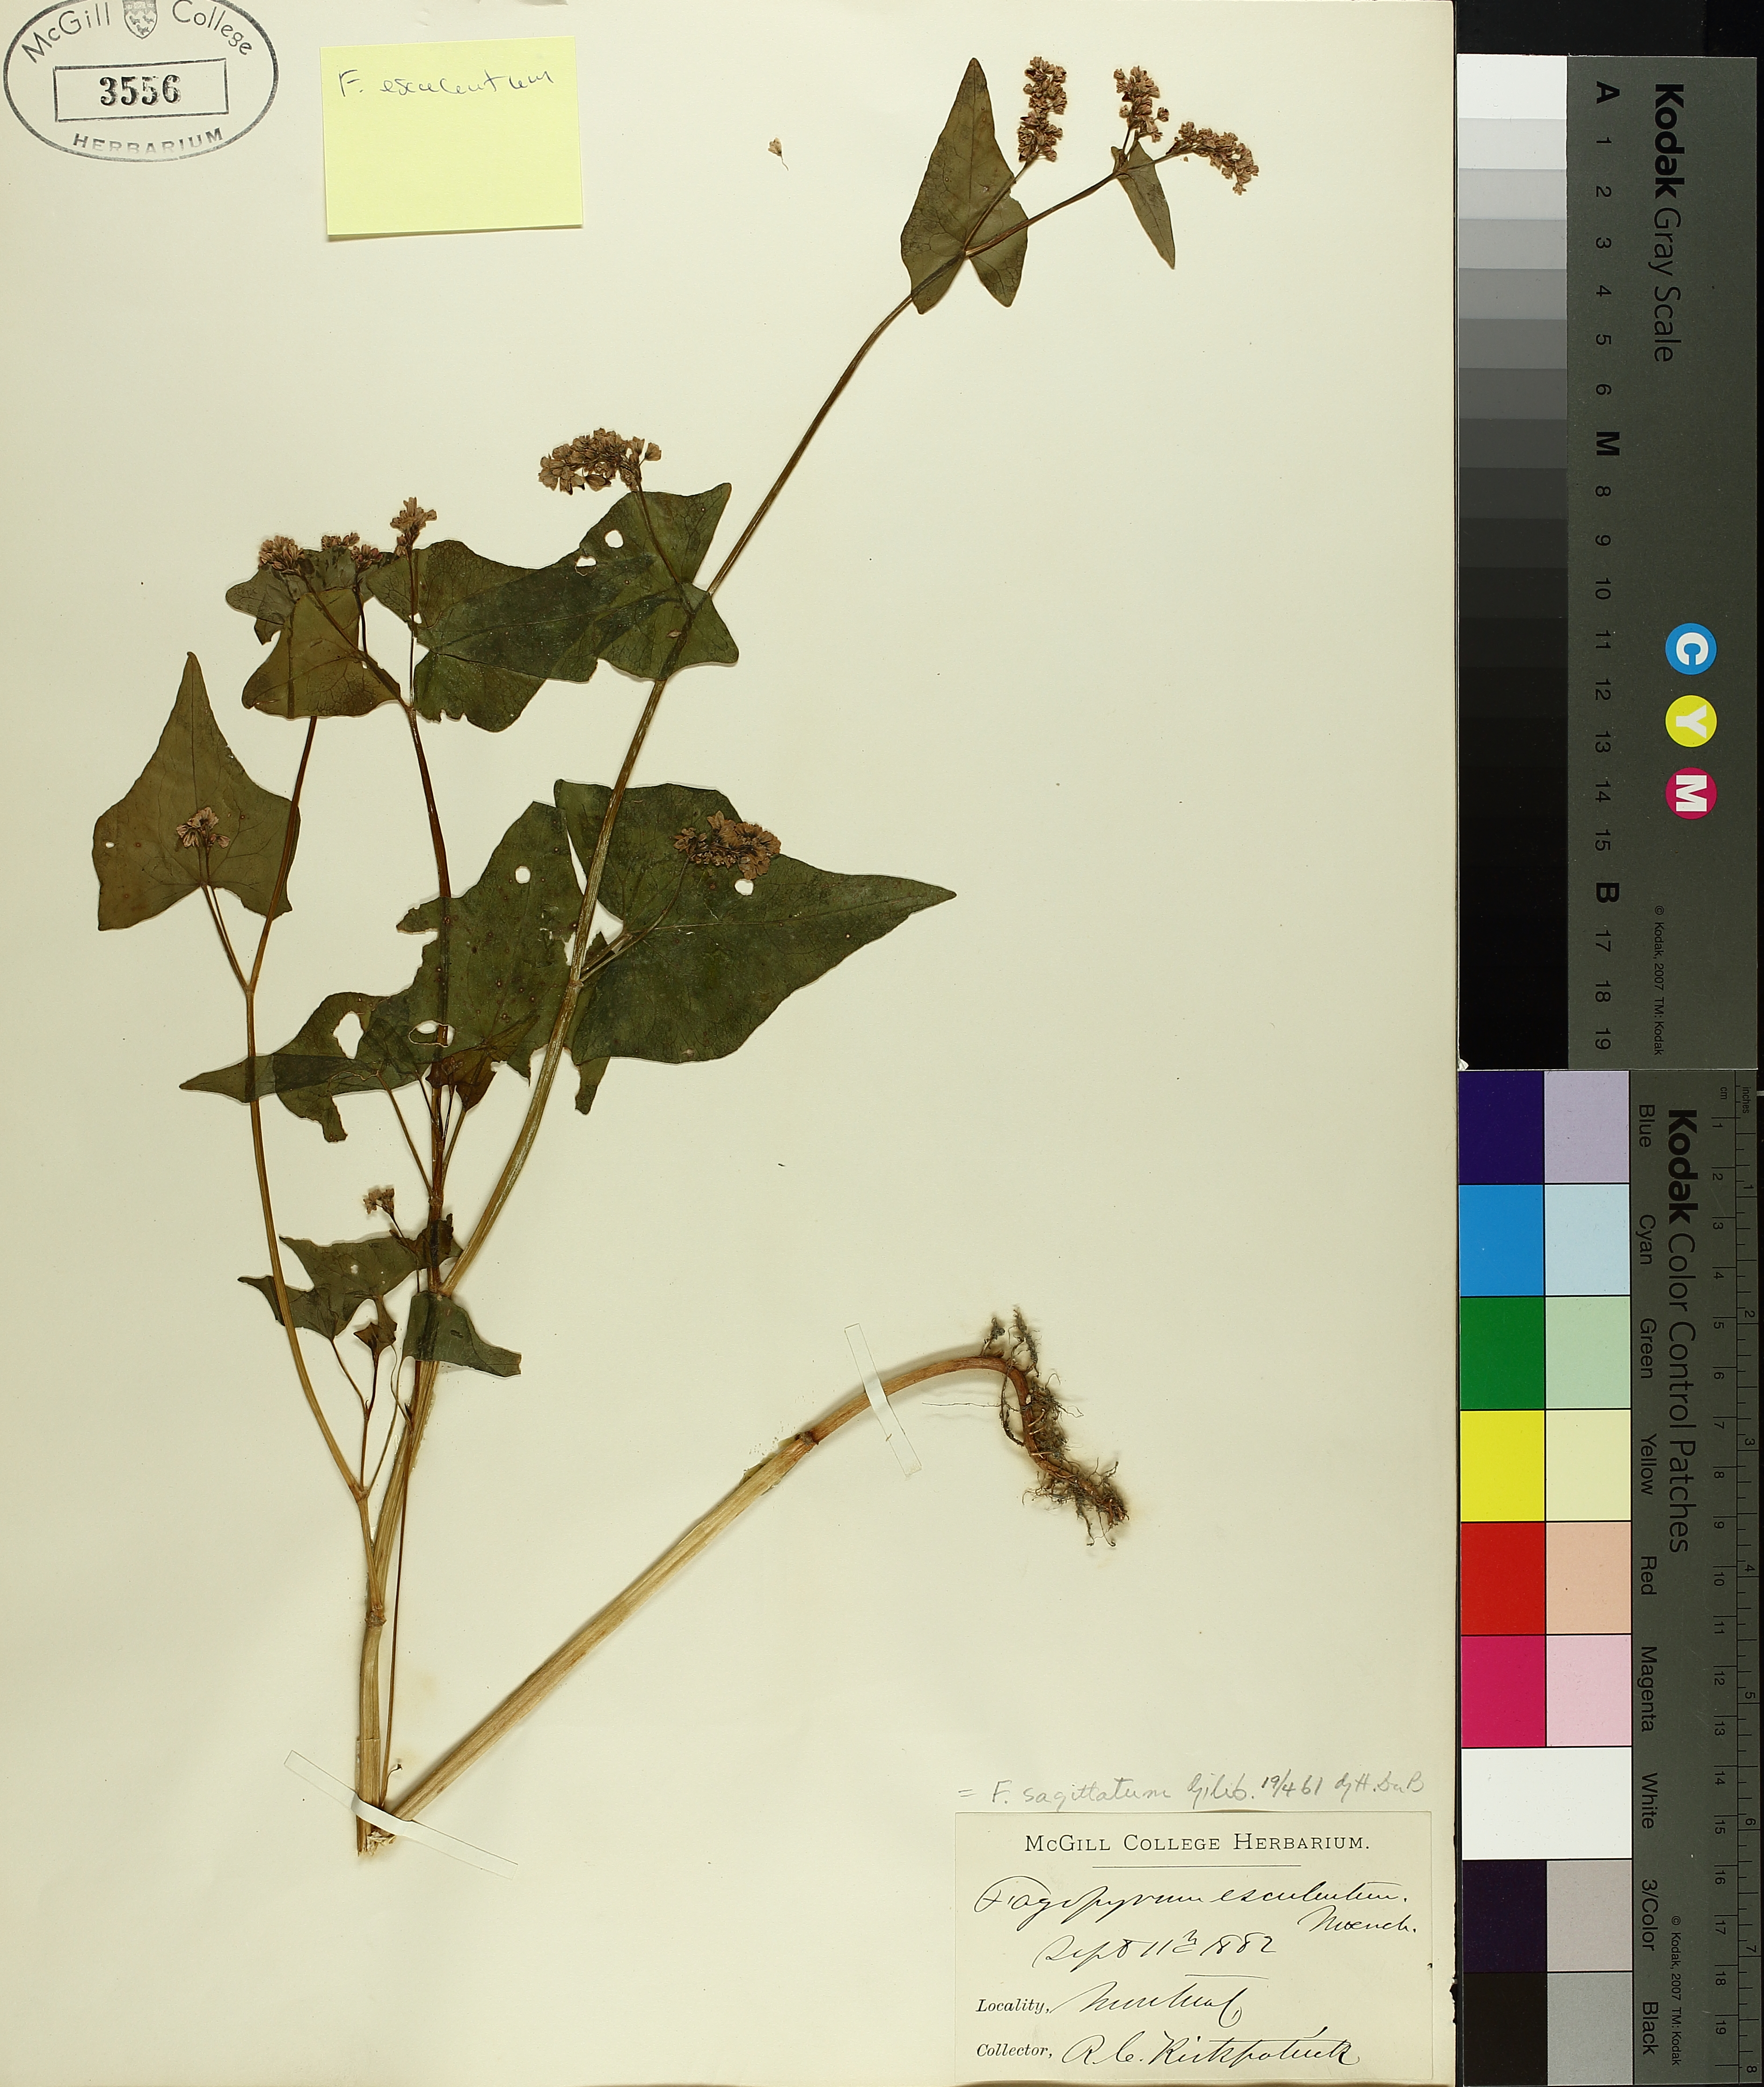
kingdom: Plantae
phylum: Tracheophyta
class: Magnoliopsida
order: Caryophyllales
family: Polygonaceae
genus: Fagopyrum
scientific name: Fagopyrum esculentum
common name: Buckwheat
